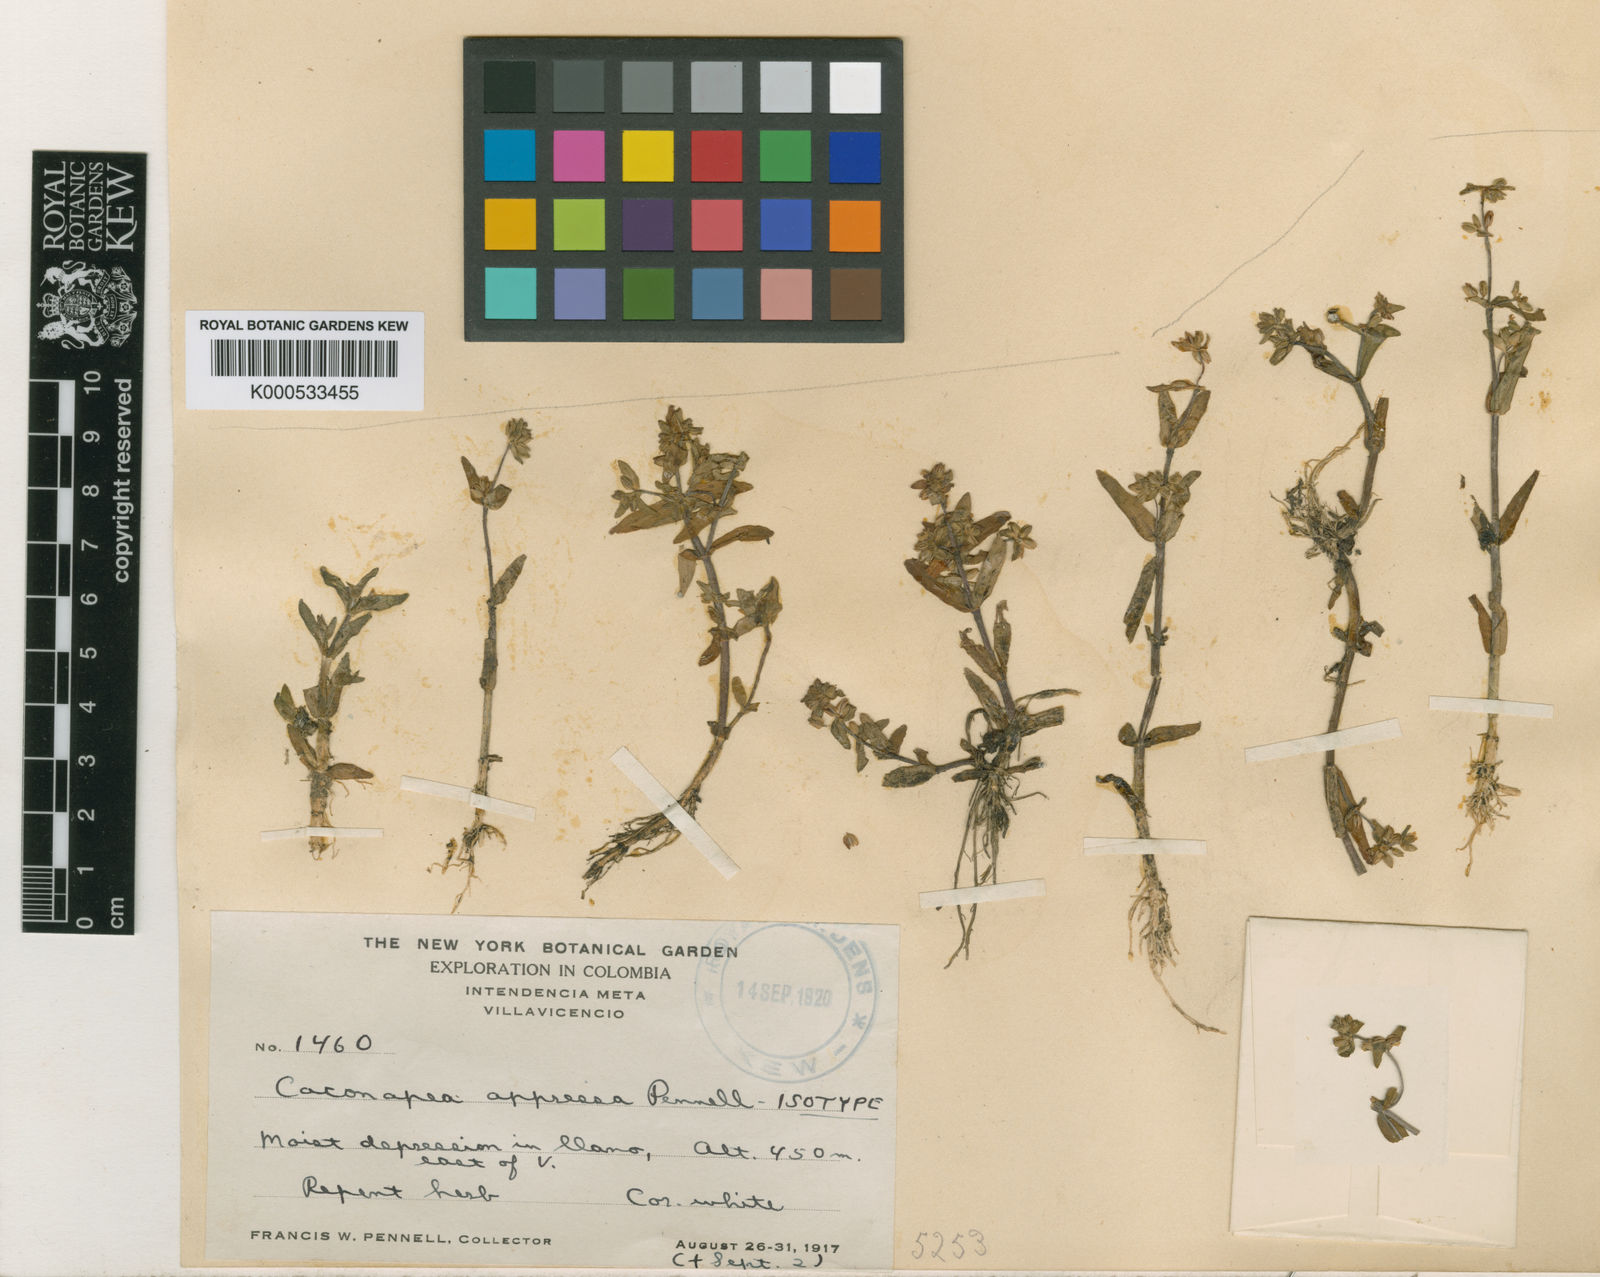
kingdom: Plantae
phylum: Tracheophyta
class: Magnoliopsida
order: Lamiales
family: Plantaginaceae
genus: Bacopa
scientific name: Bacopa axillaris
